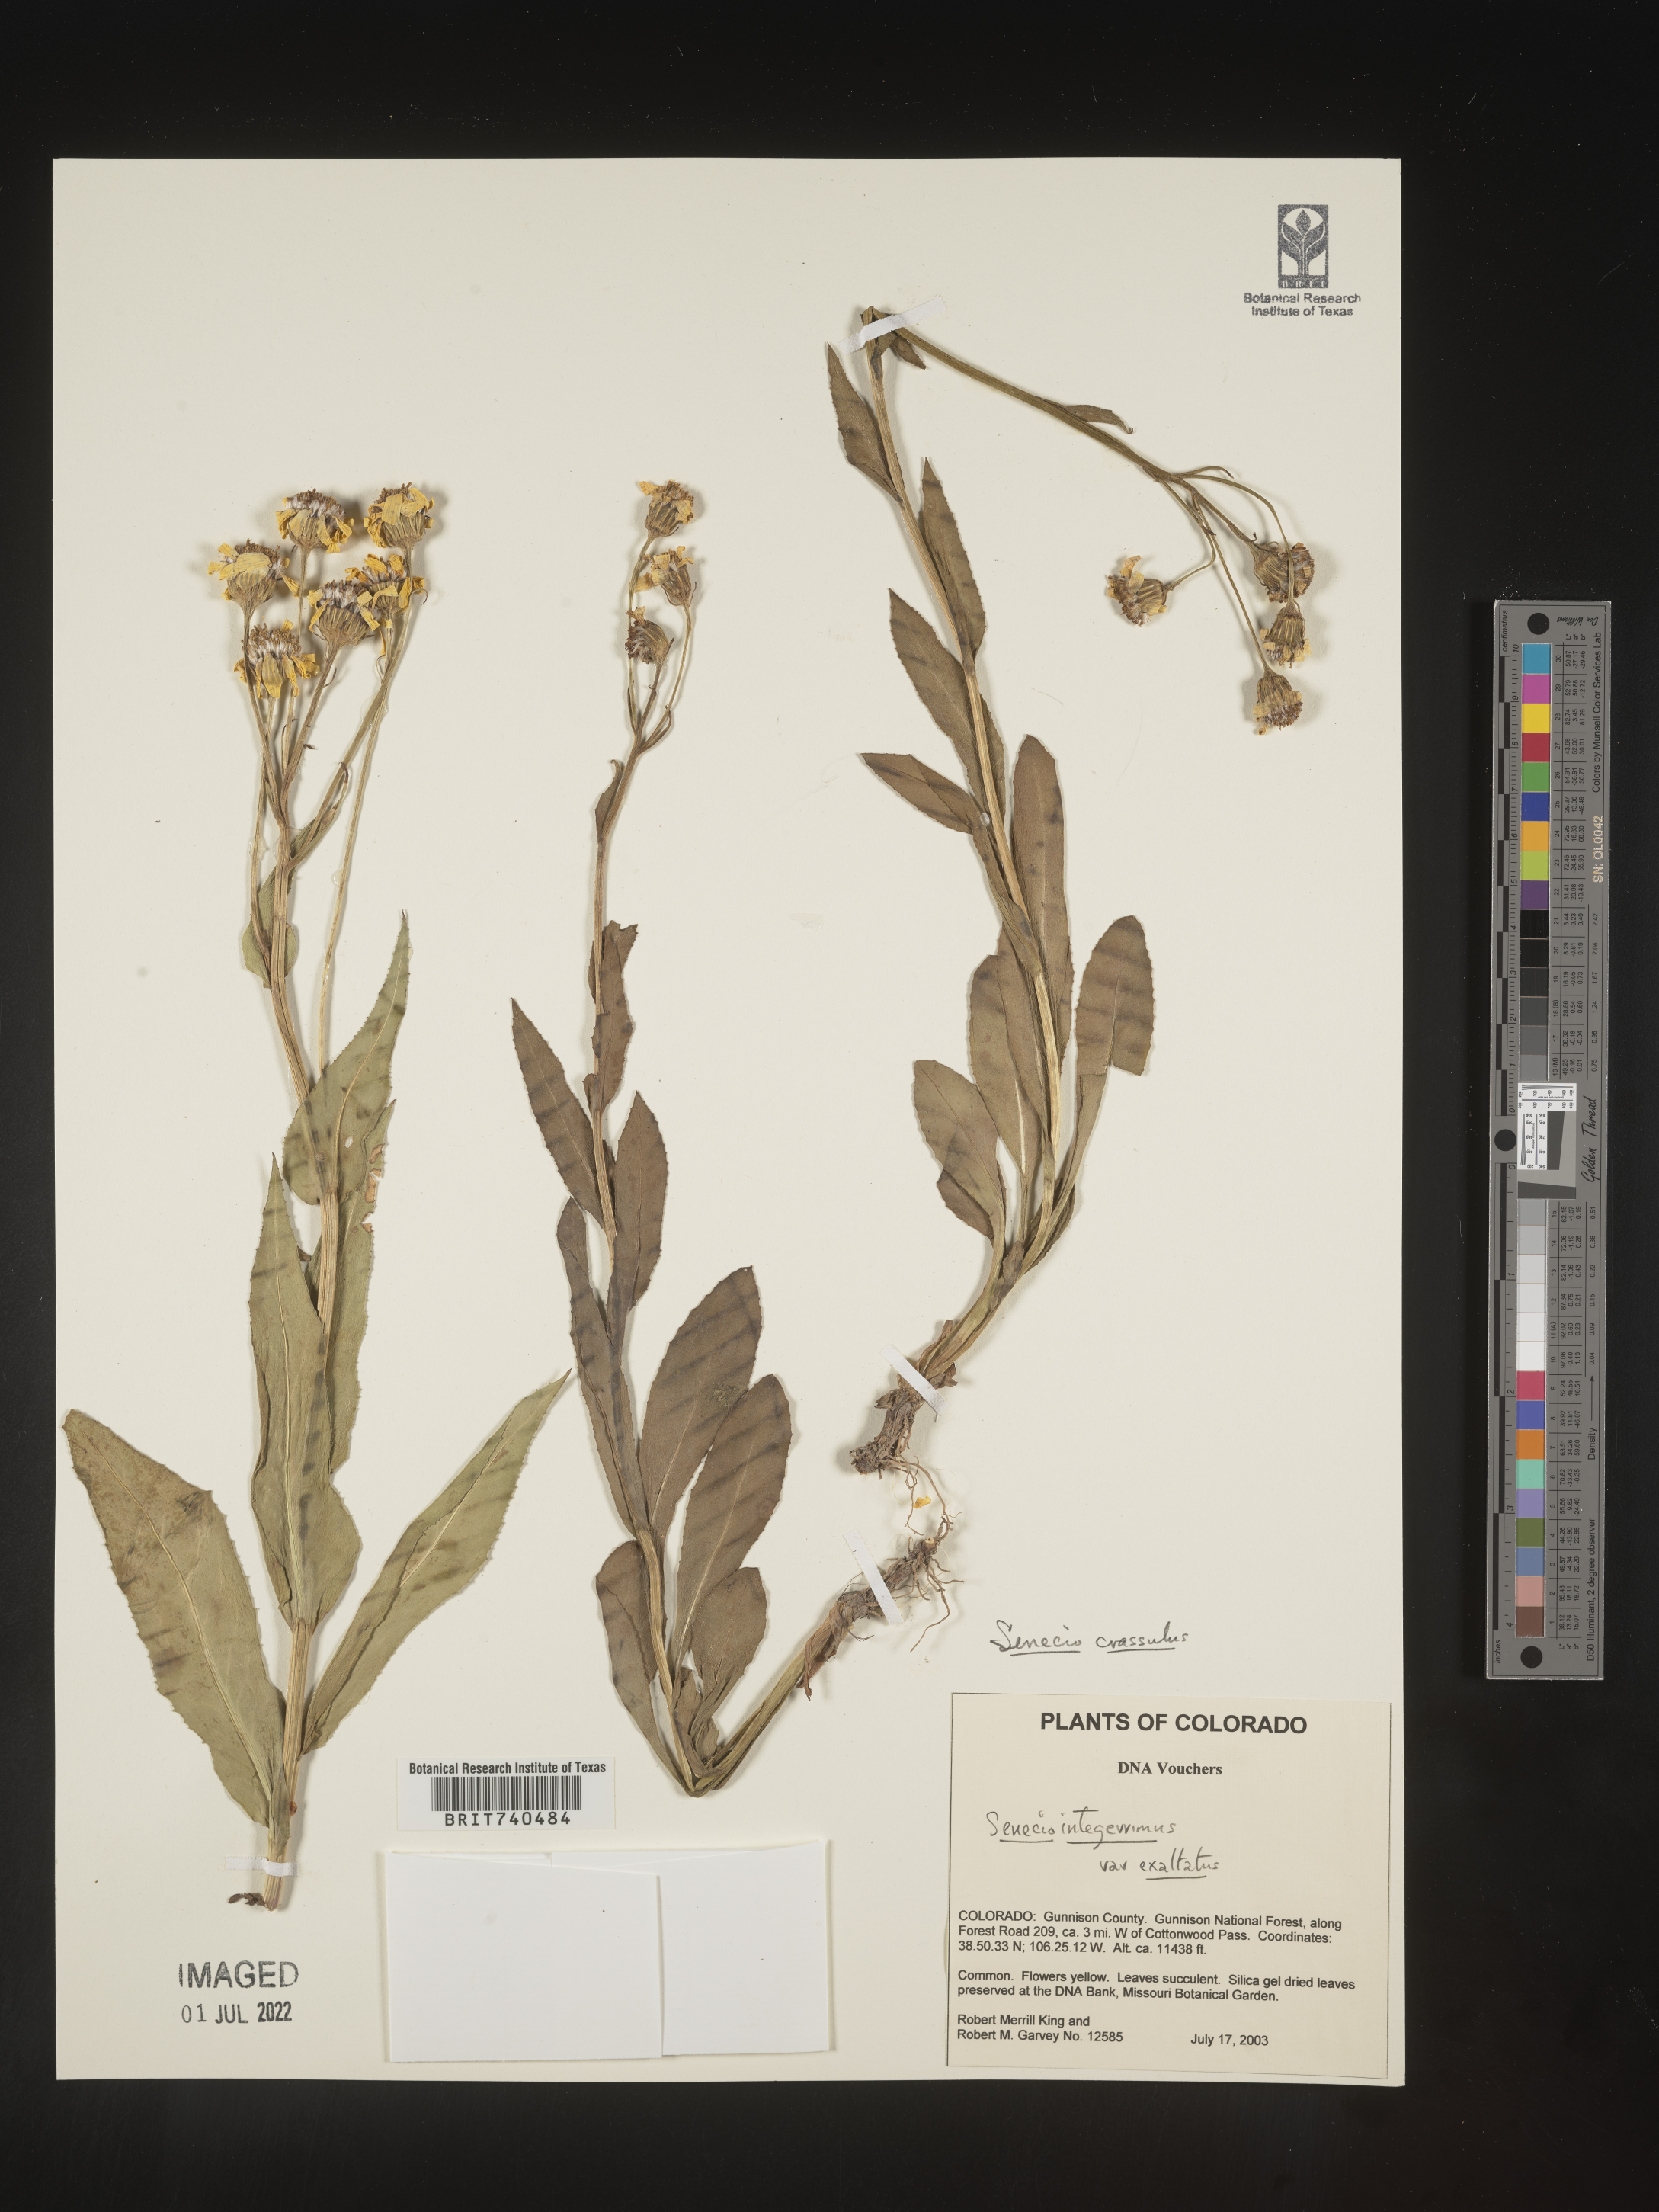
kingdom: Plantae
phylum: Tracheophyta
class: Magnoliopsida
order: Asterales
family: Asteraceae
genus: Senecio
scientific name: Senecio crassulus
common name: Mountain-meadow butterweed
